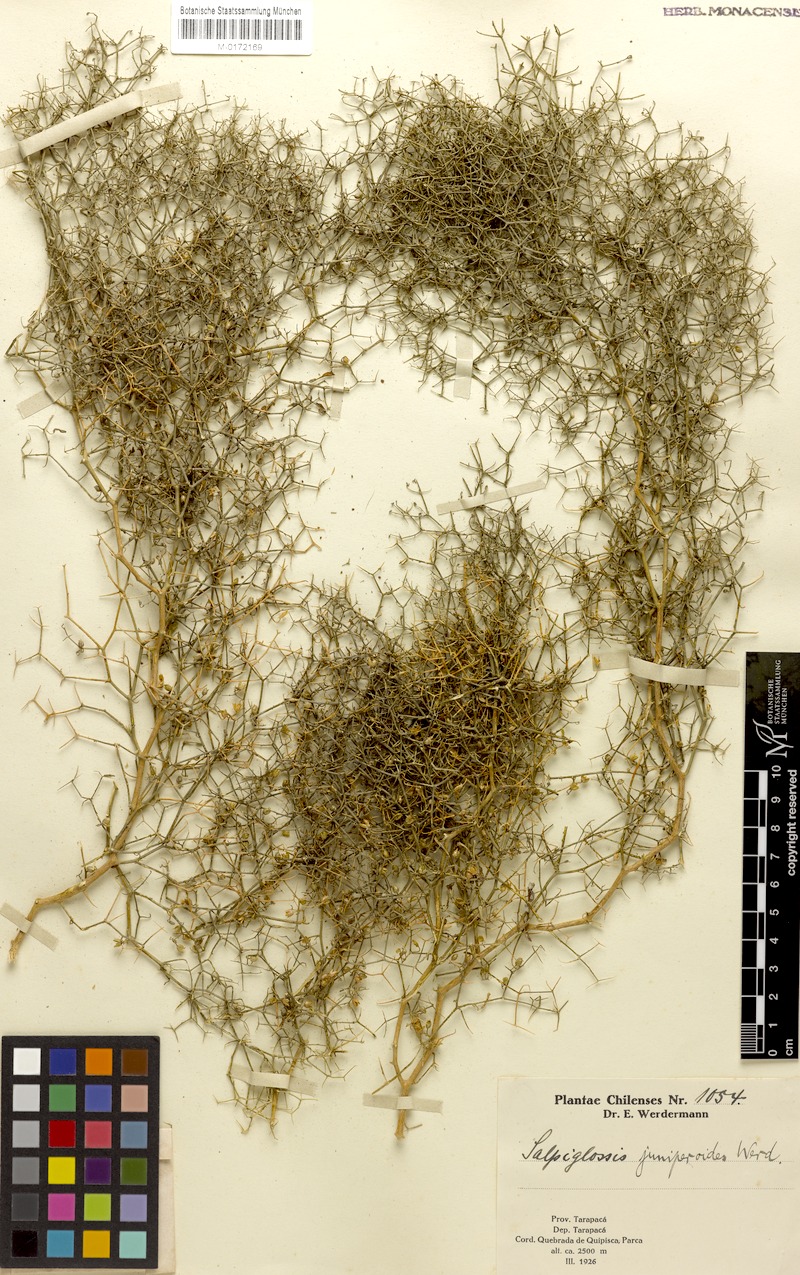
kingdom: Plantae
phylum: Tracheophyta
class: Magnoliopsida
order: Solanales
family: Solanaceae
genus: Reyesia
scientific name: Reyesia juniperoides
